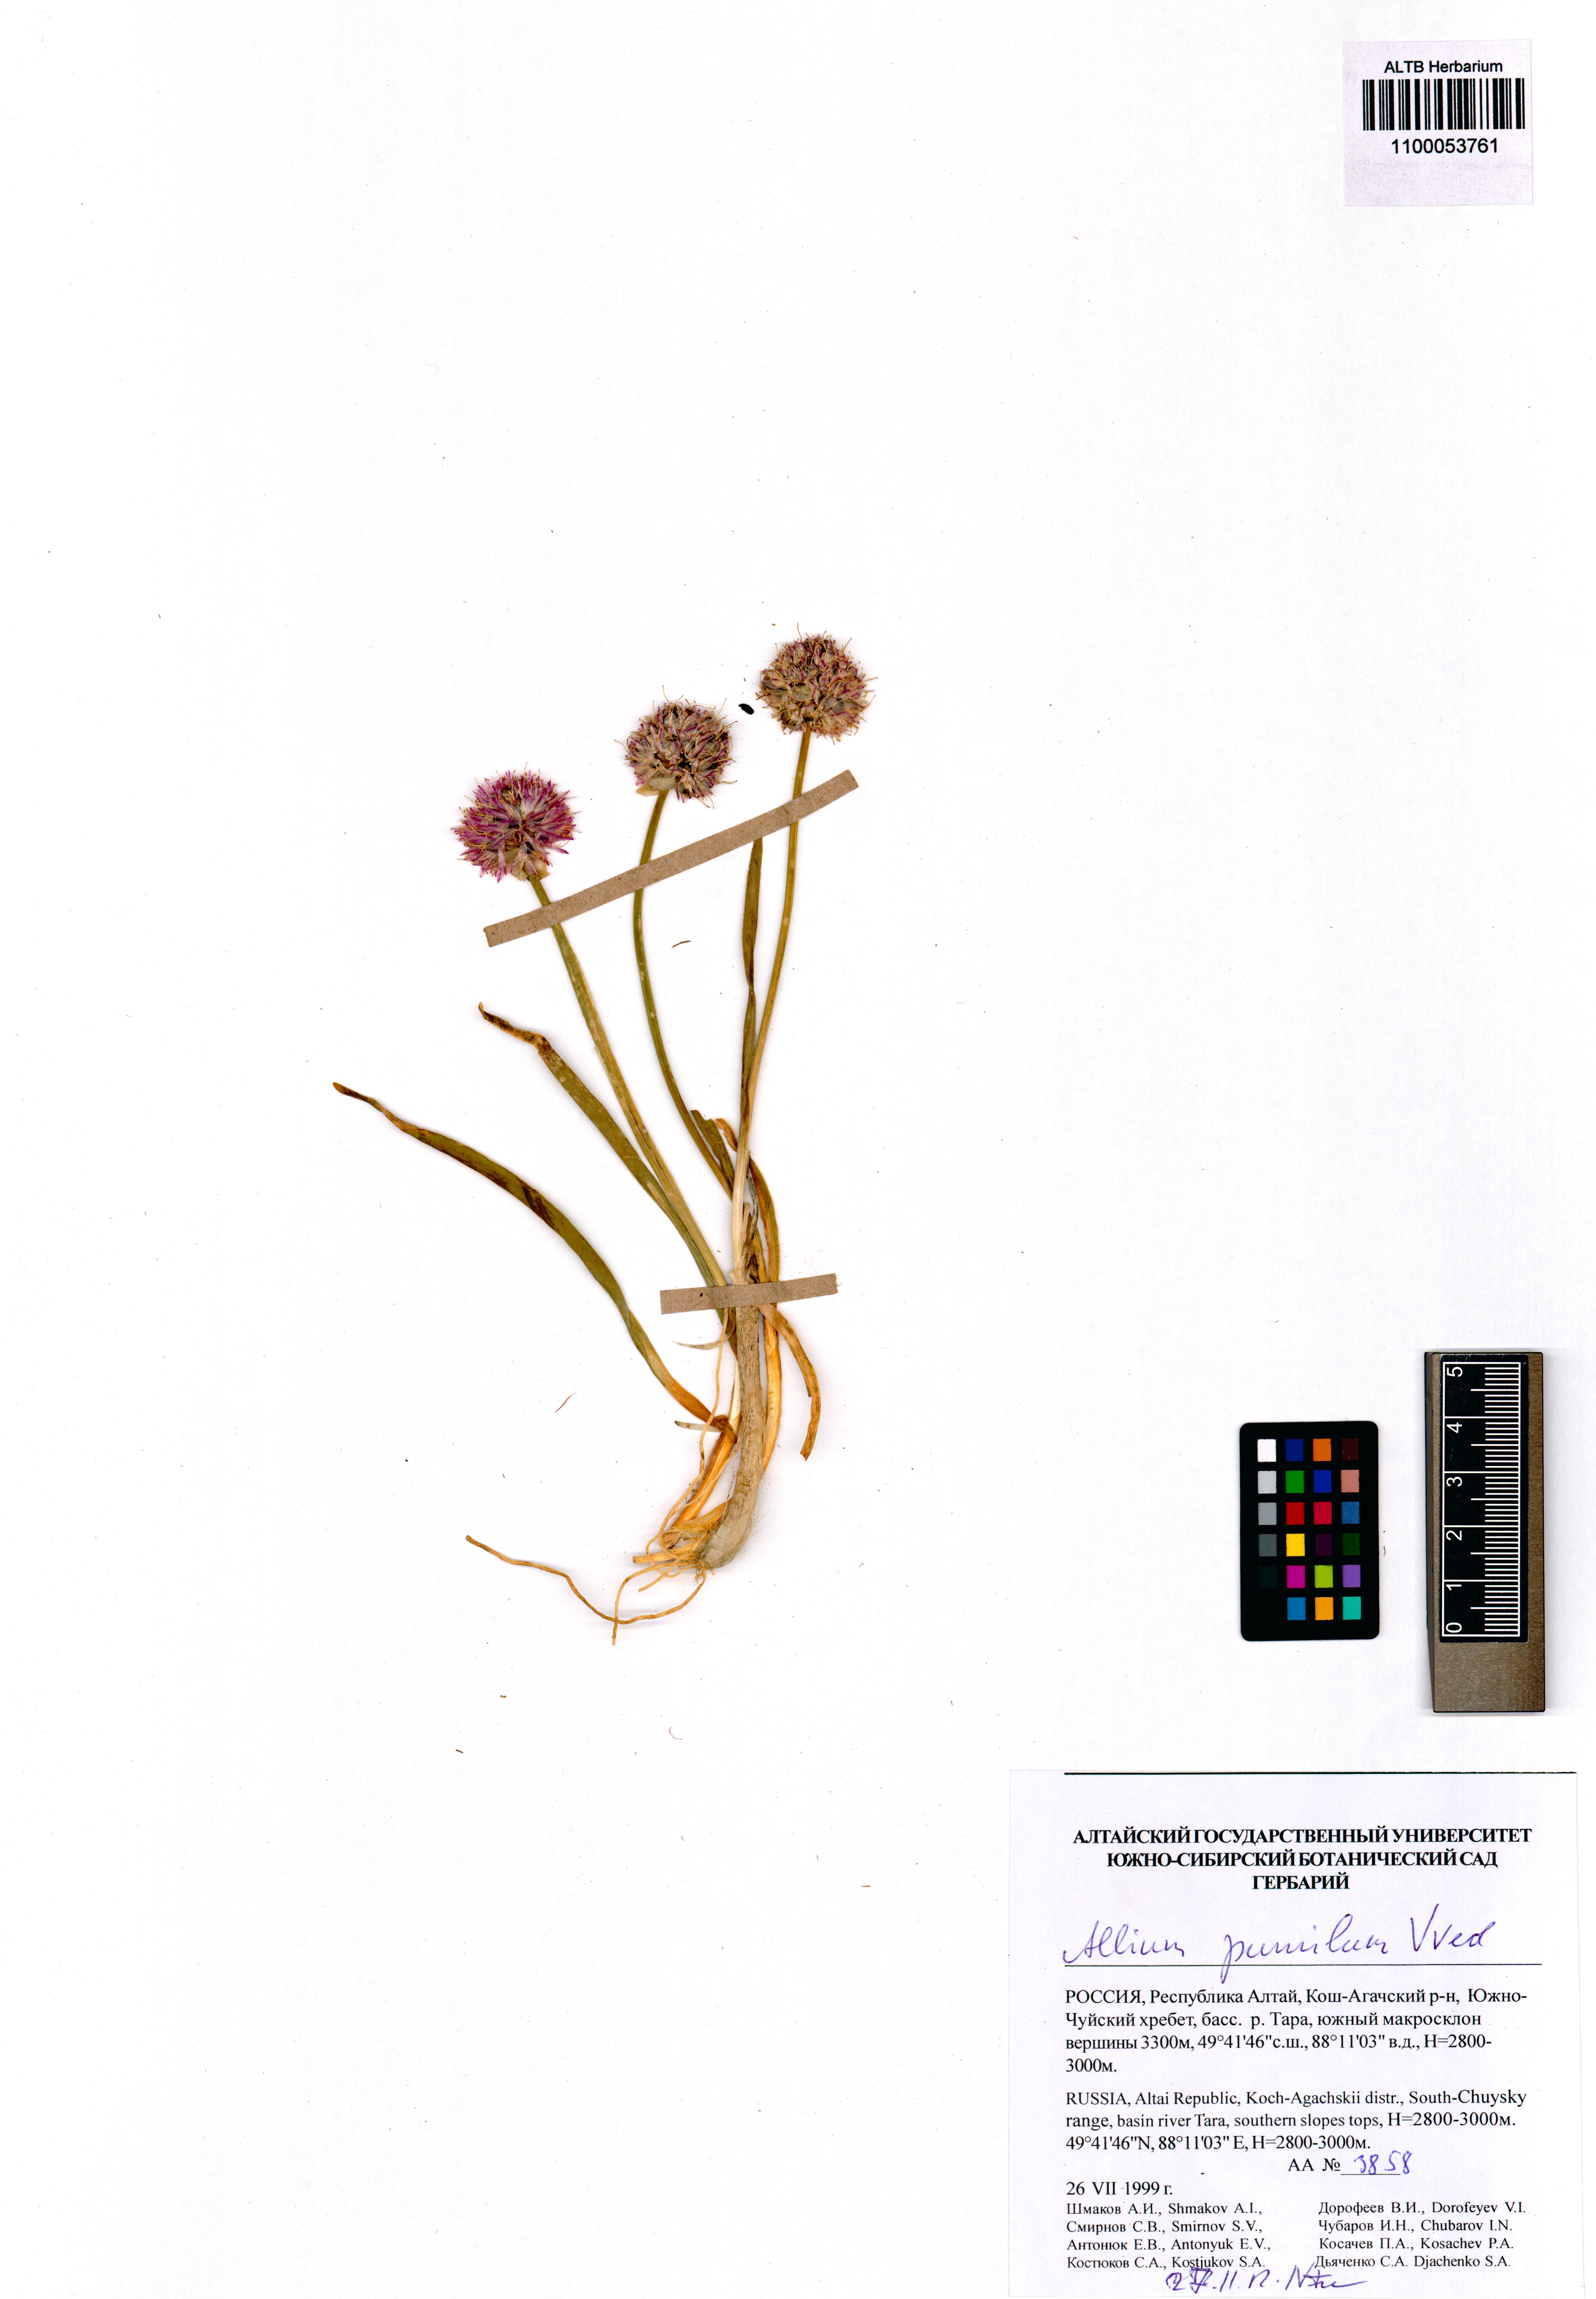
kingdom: Plantae
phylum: Tracheophyta
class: Liliopsida
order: Asparagales
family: Amaryllidaceae
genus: Allium
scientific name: Allium pumilum
